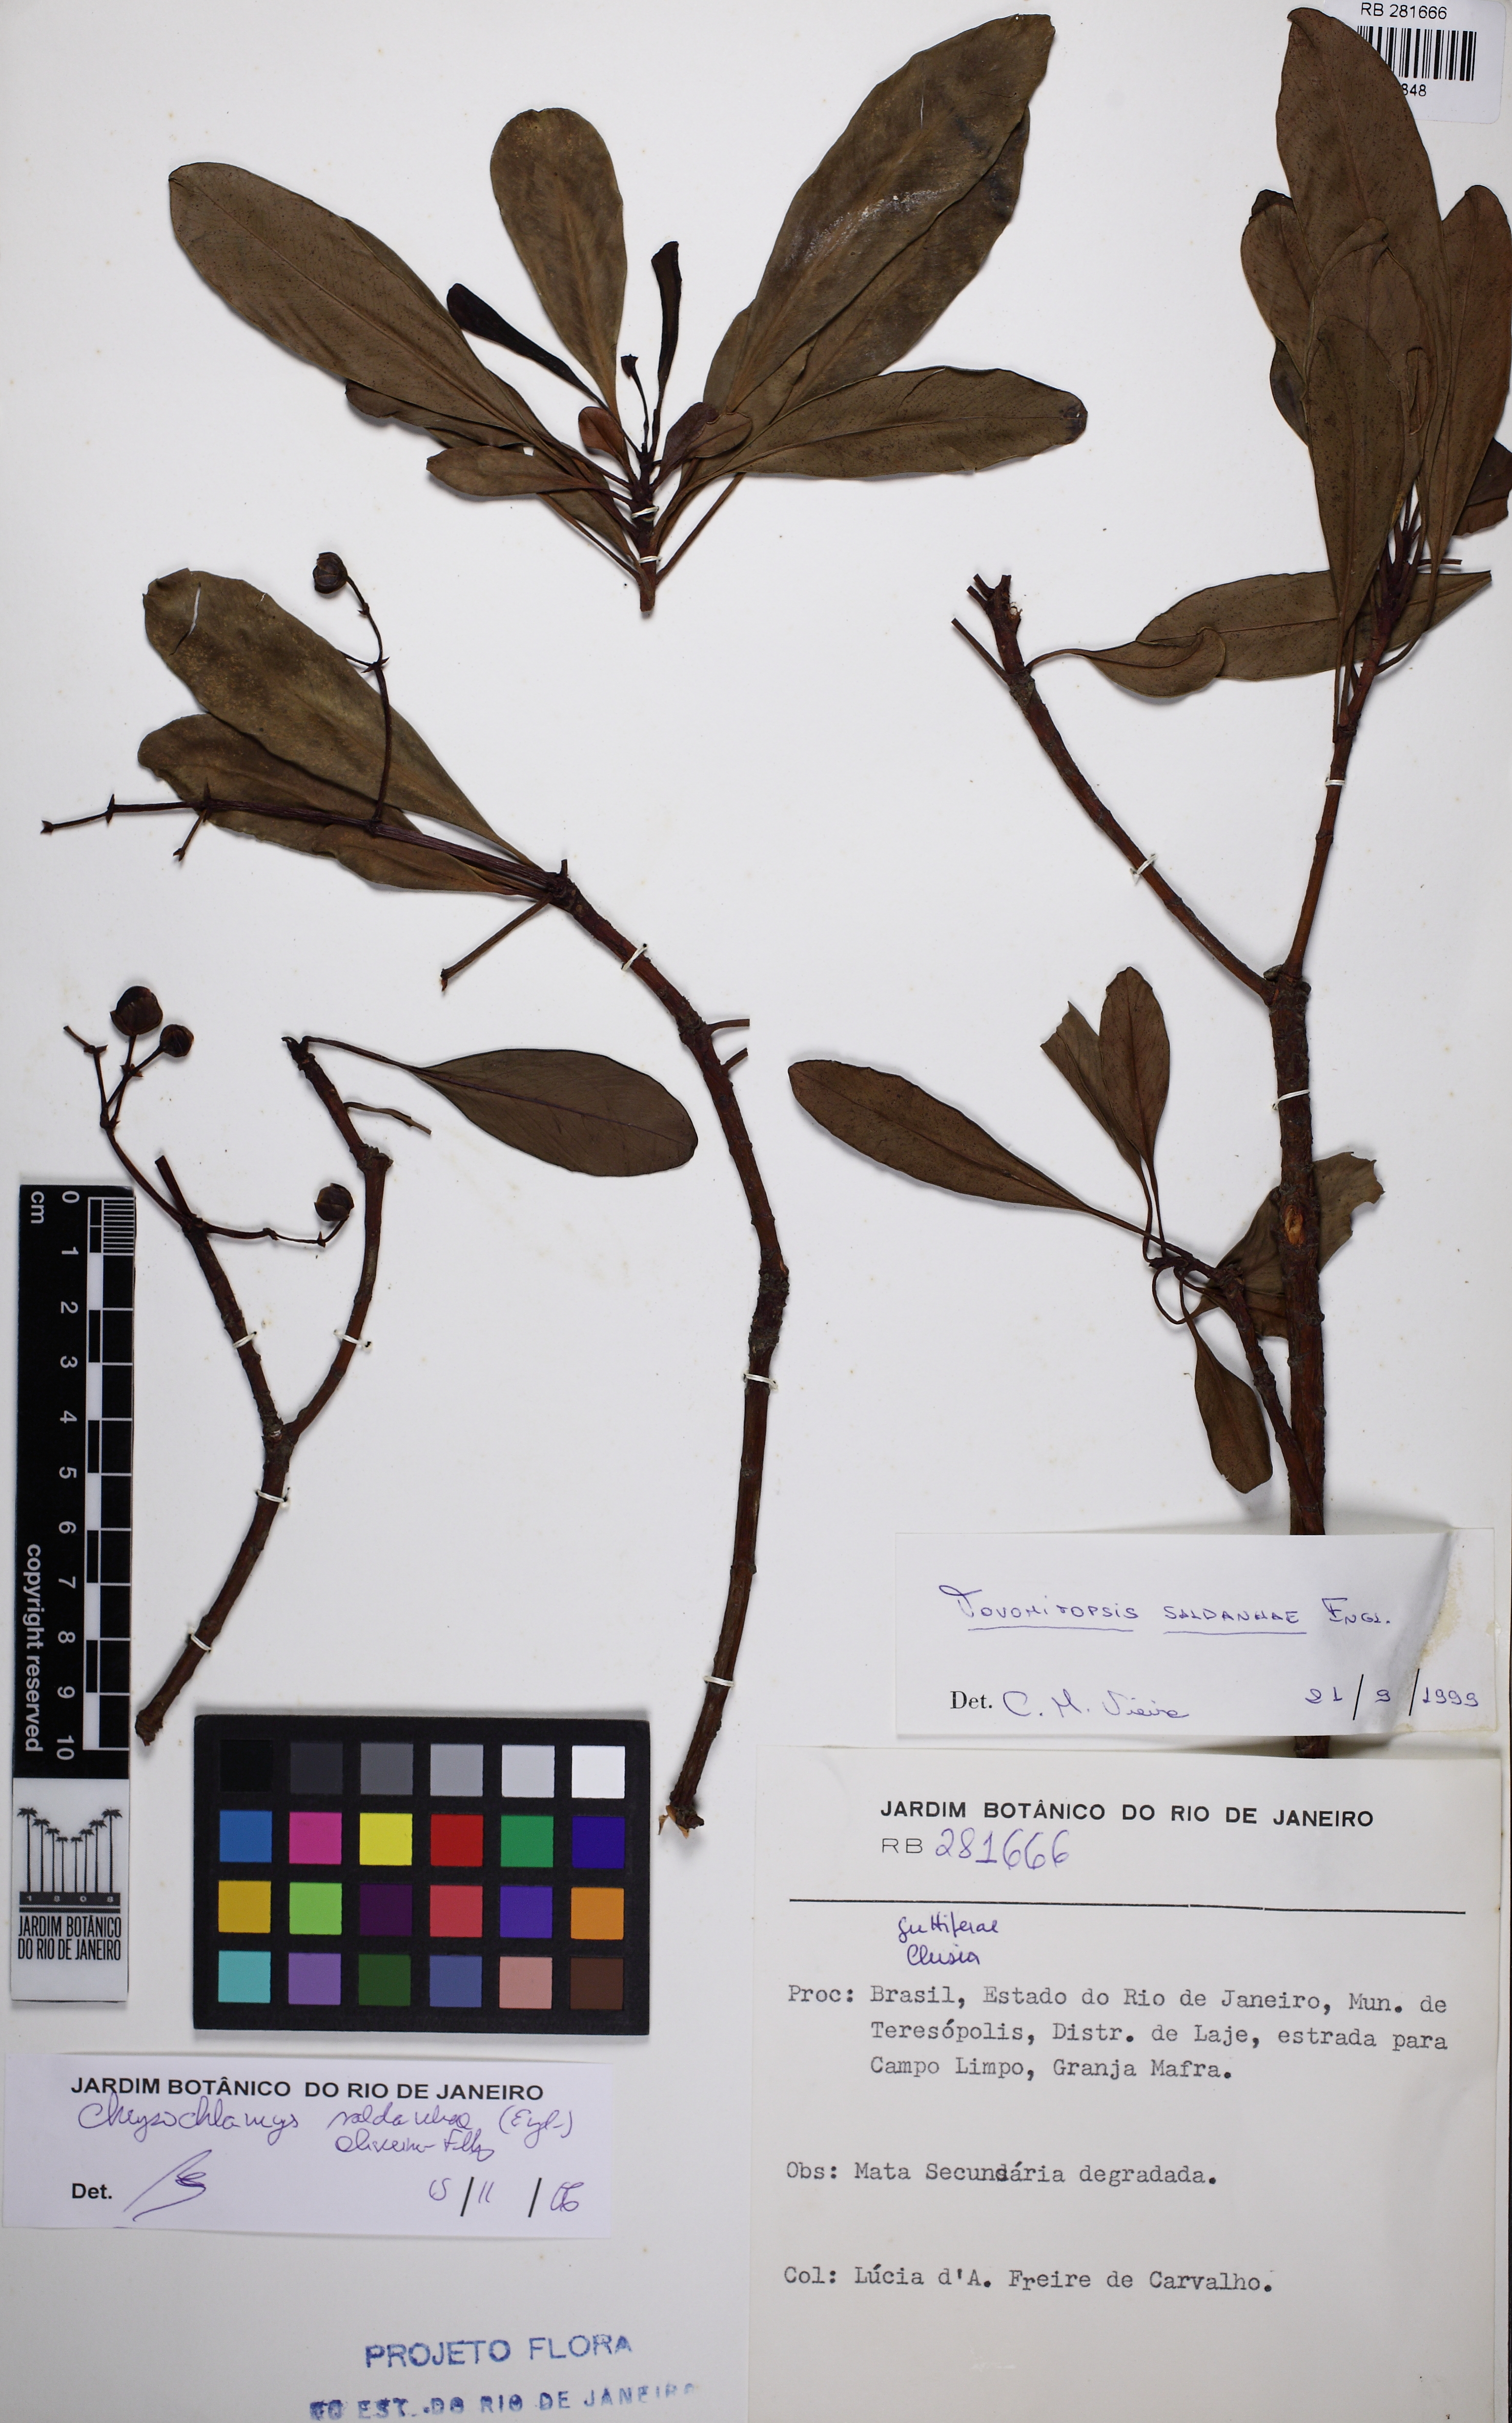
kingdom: Plantae
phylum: Tracheophyta
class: Magnoliopsida
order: Malpighiales
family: Clusiaceae
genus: Chrysochlamys
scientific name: Chrysochlamys saldanhae
